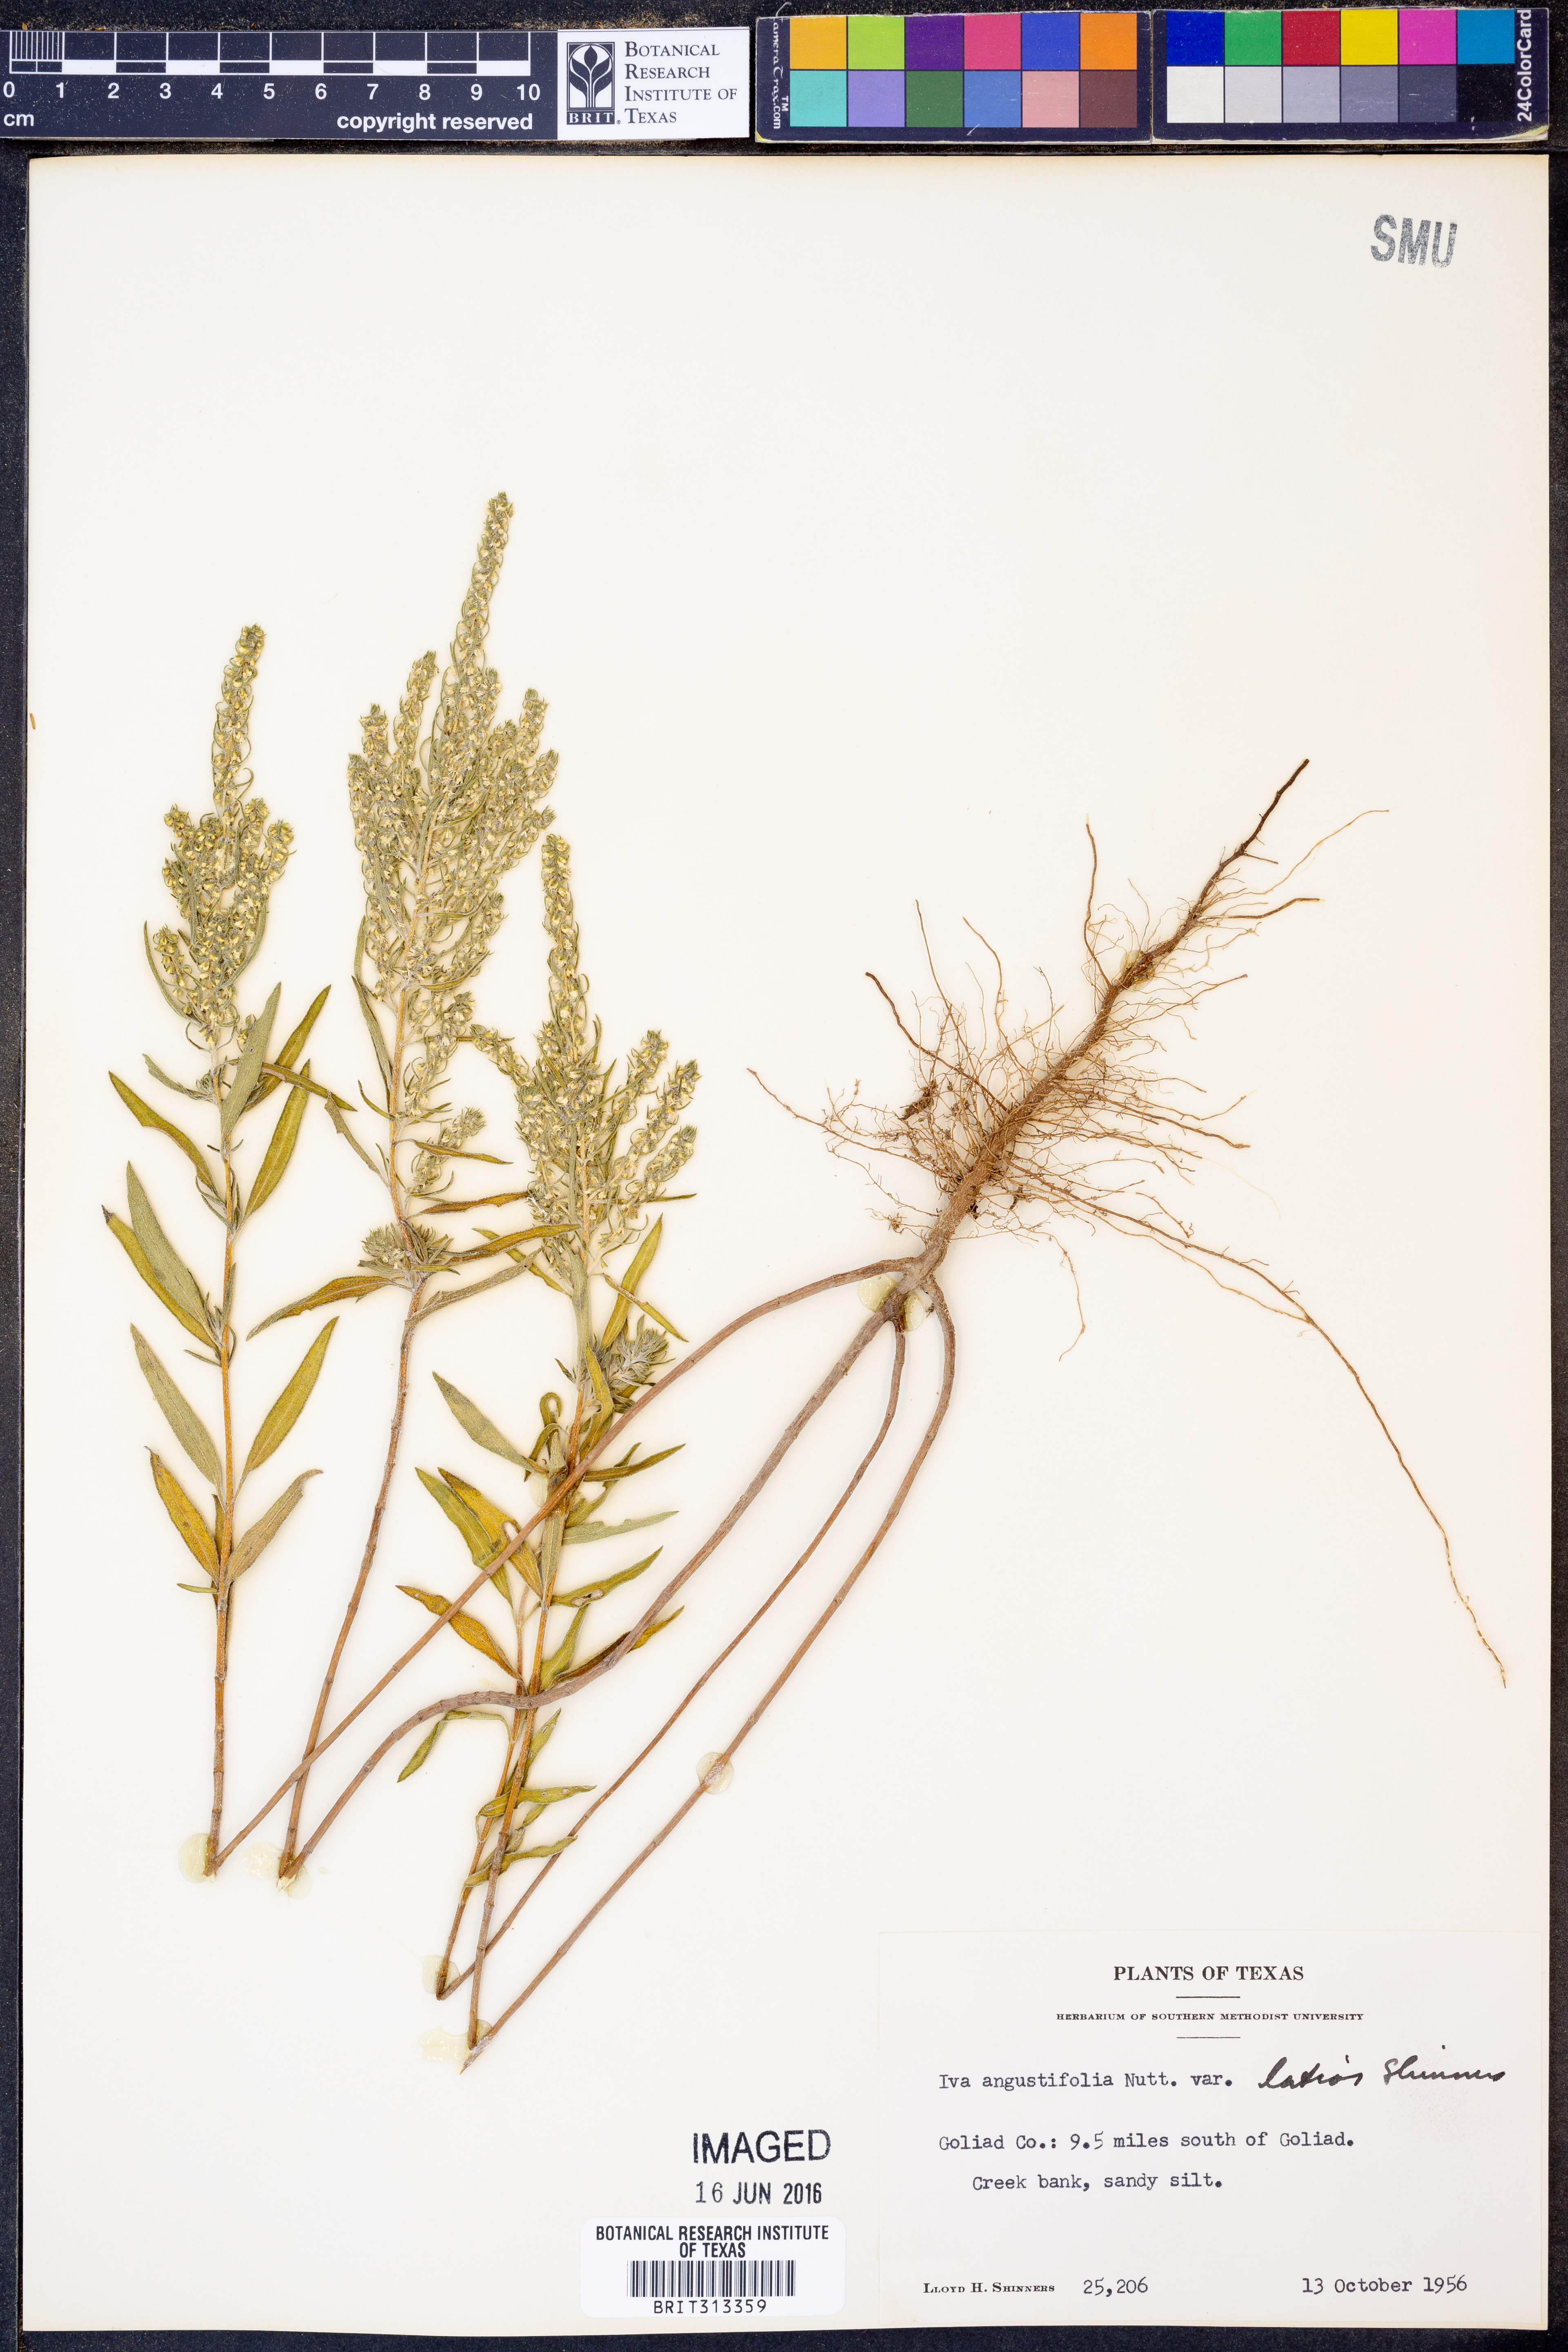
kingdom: Plantae
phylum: Tracheophyta
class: Magnoliopsida
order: Asterales
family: Asteraceae
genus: Iva
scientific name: Iva texensis
